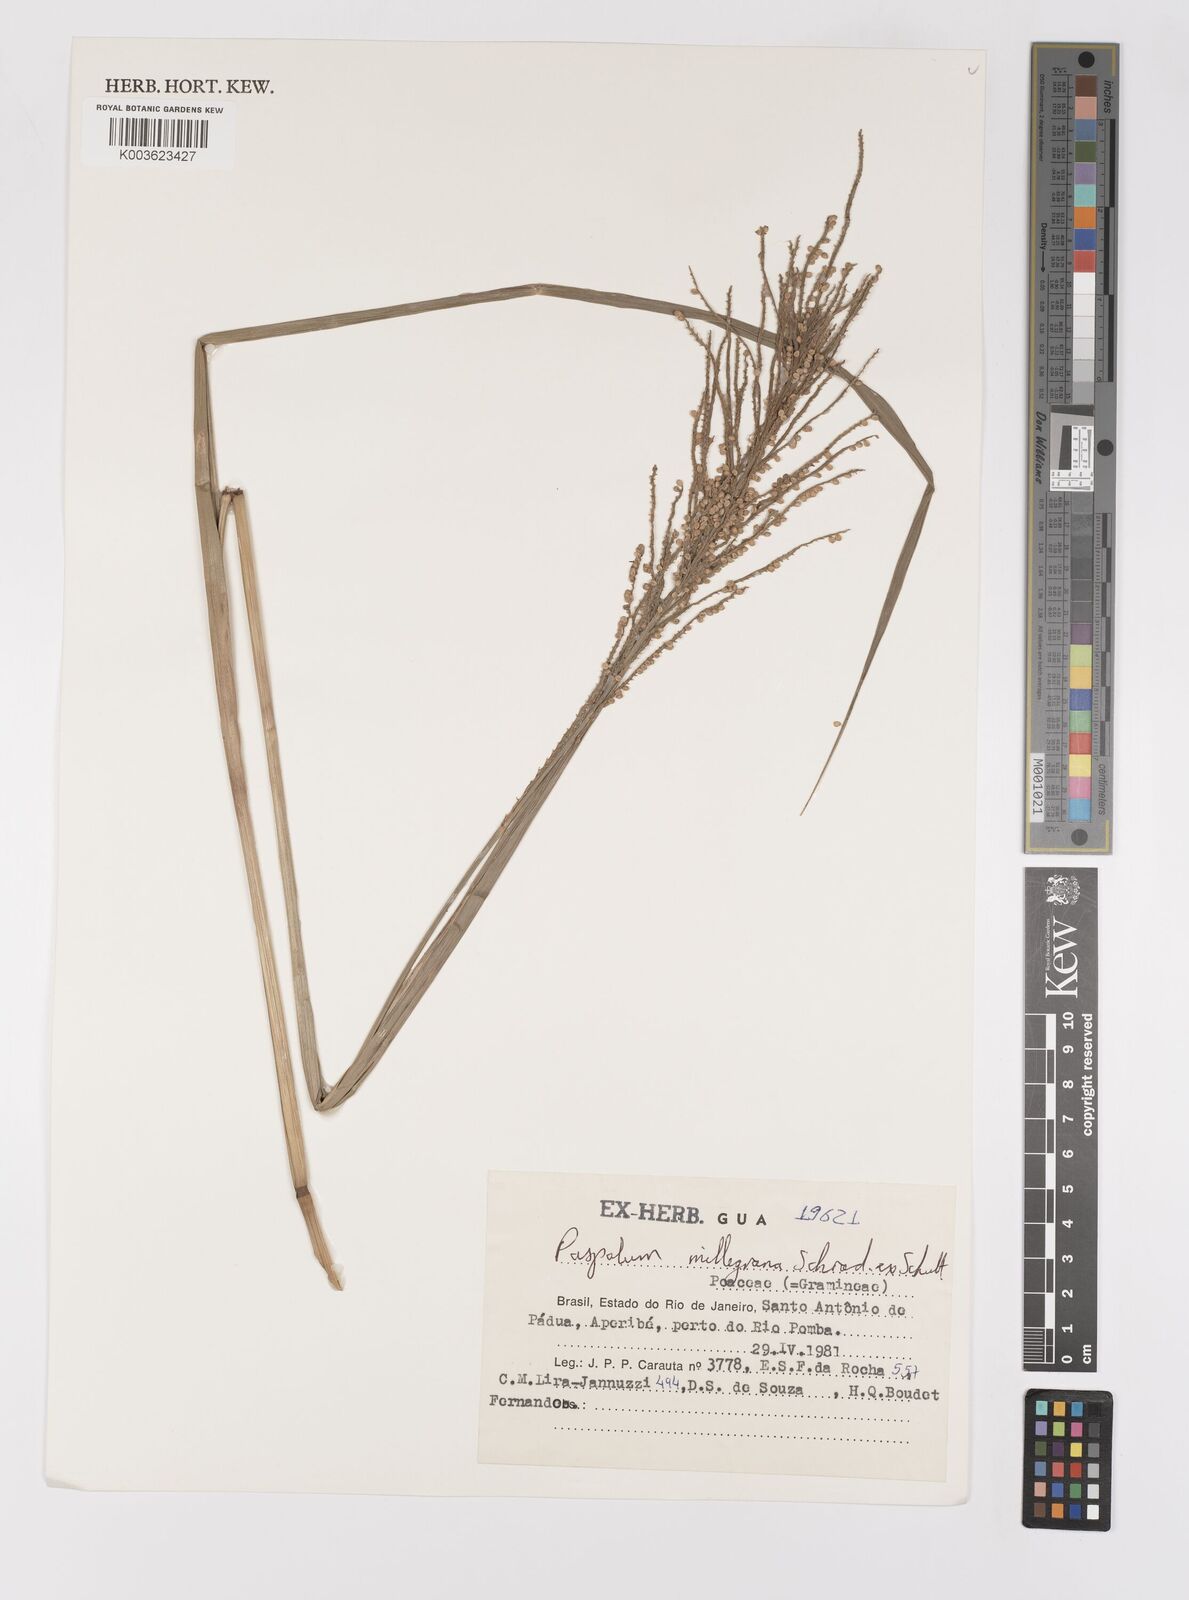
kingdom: Plantae
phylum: Tracheophyta
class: Liliopsida
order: Poales
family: Poaceae
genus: Paspalum
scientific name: Paspalum millegranum
